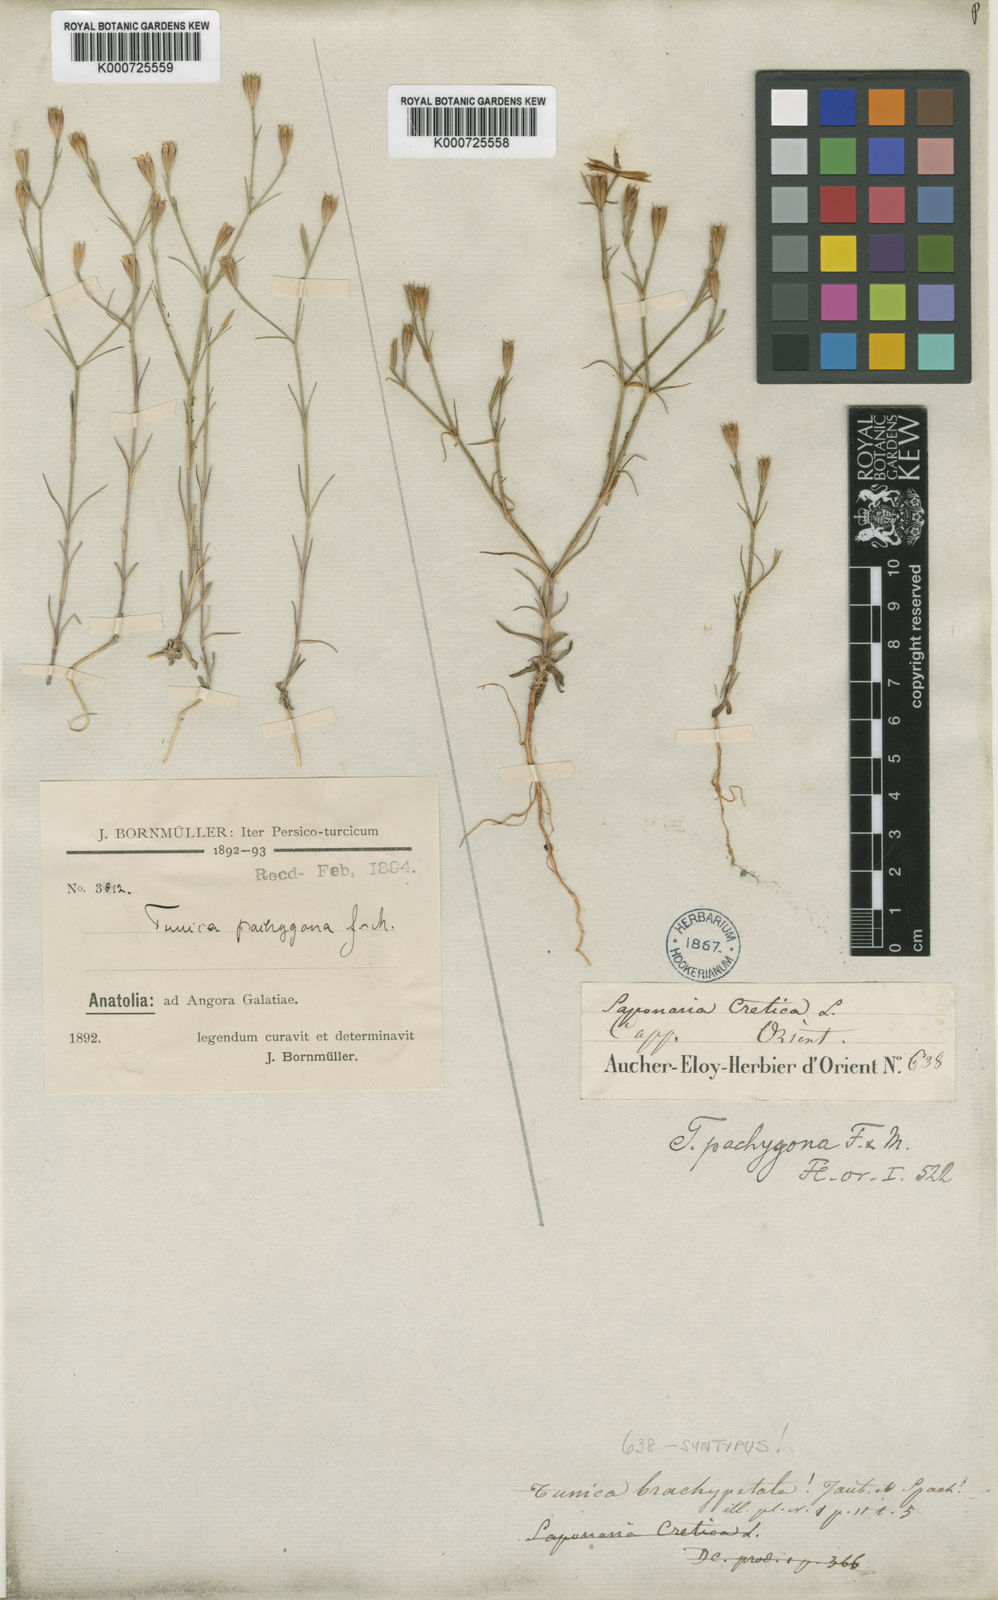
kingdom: Plantae
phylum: Tracheophyta
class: Magnoliopsida
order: Caryophyllales
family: Caryophyllaceae
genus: Petrorhagia
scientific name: Petrorhagia cretica
